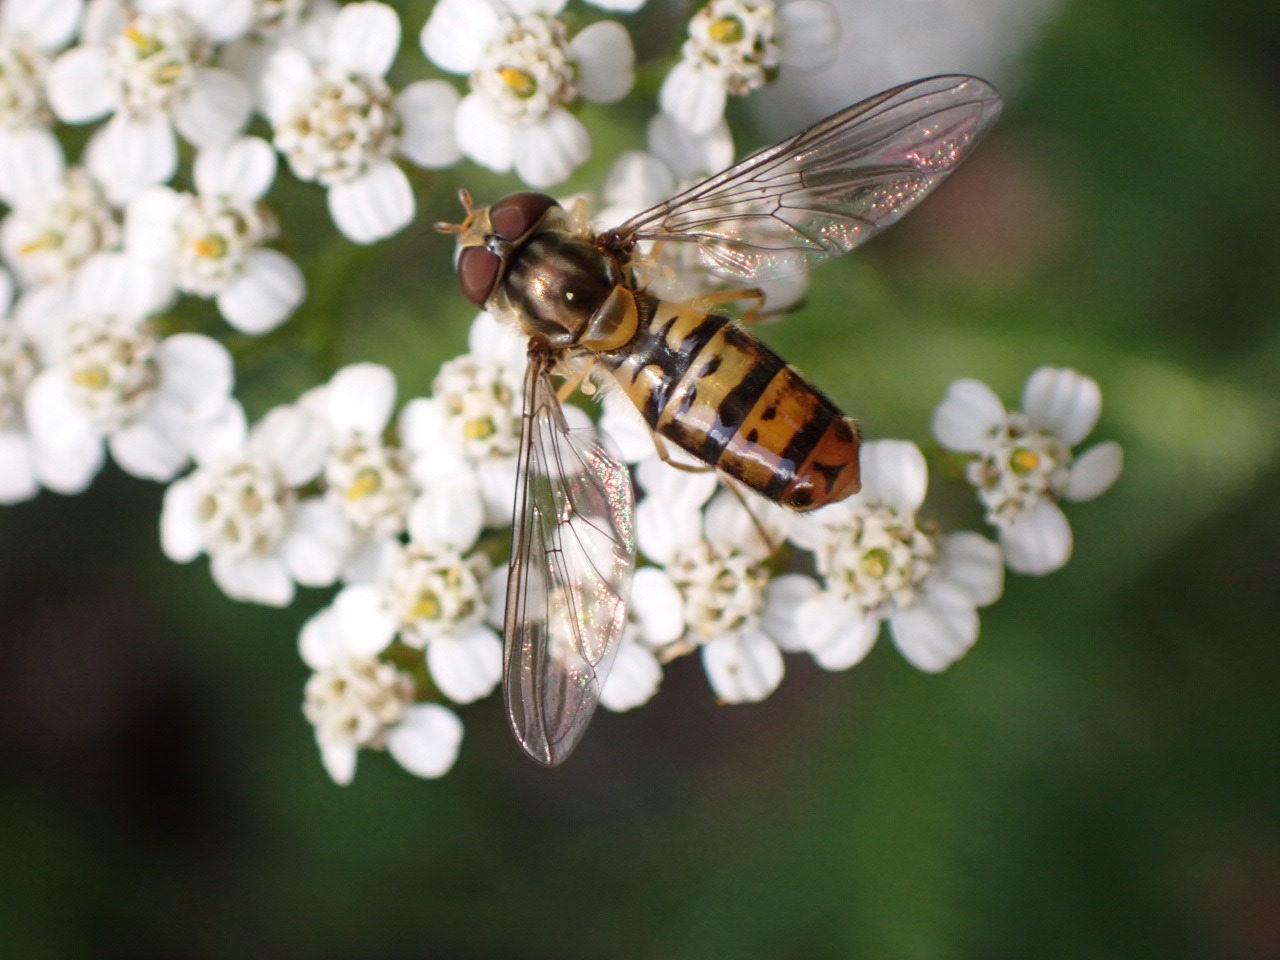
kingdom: Animalia
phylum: Arthropoda
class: Insecta
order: Diptera
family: Syrphidae
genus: Episyrphus
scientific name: Episyrphus balteatus
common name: Dobbeltbåndet svirreflue
